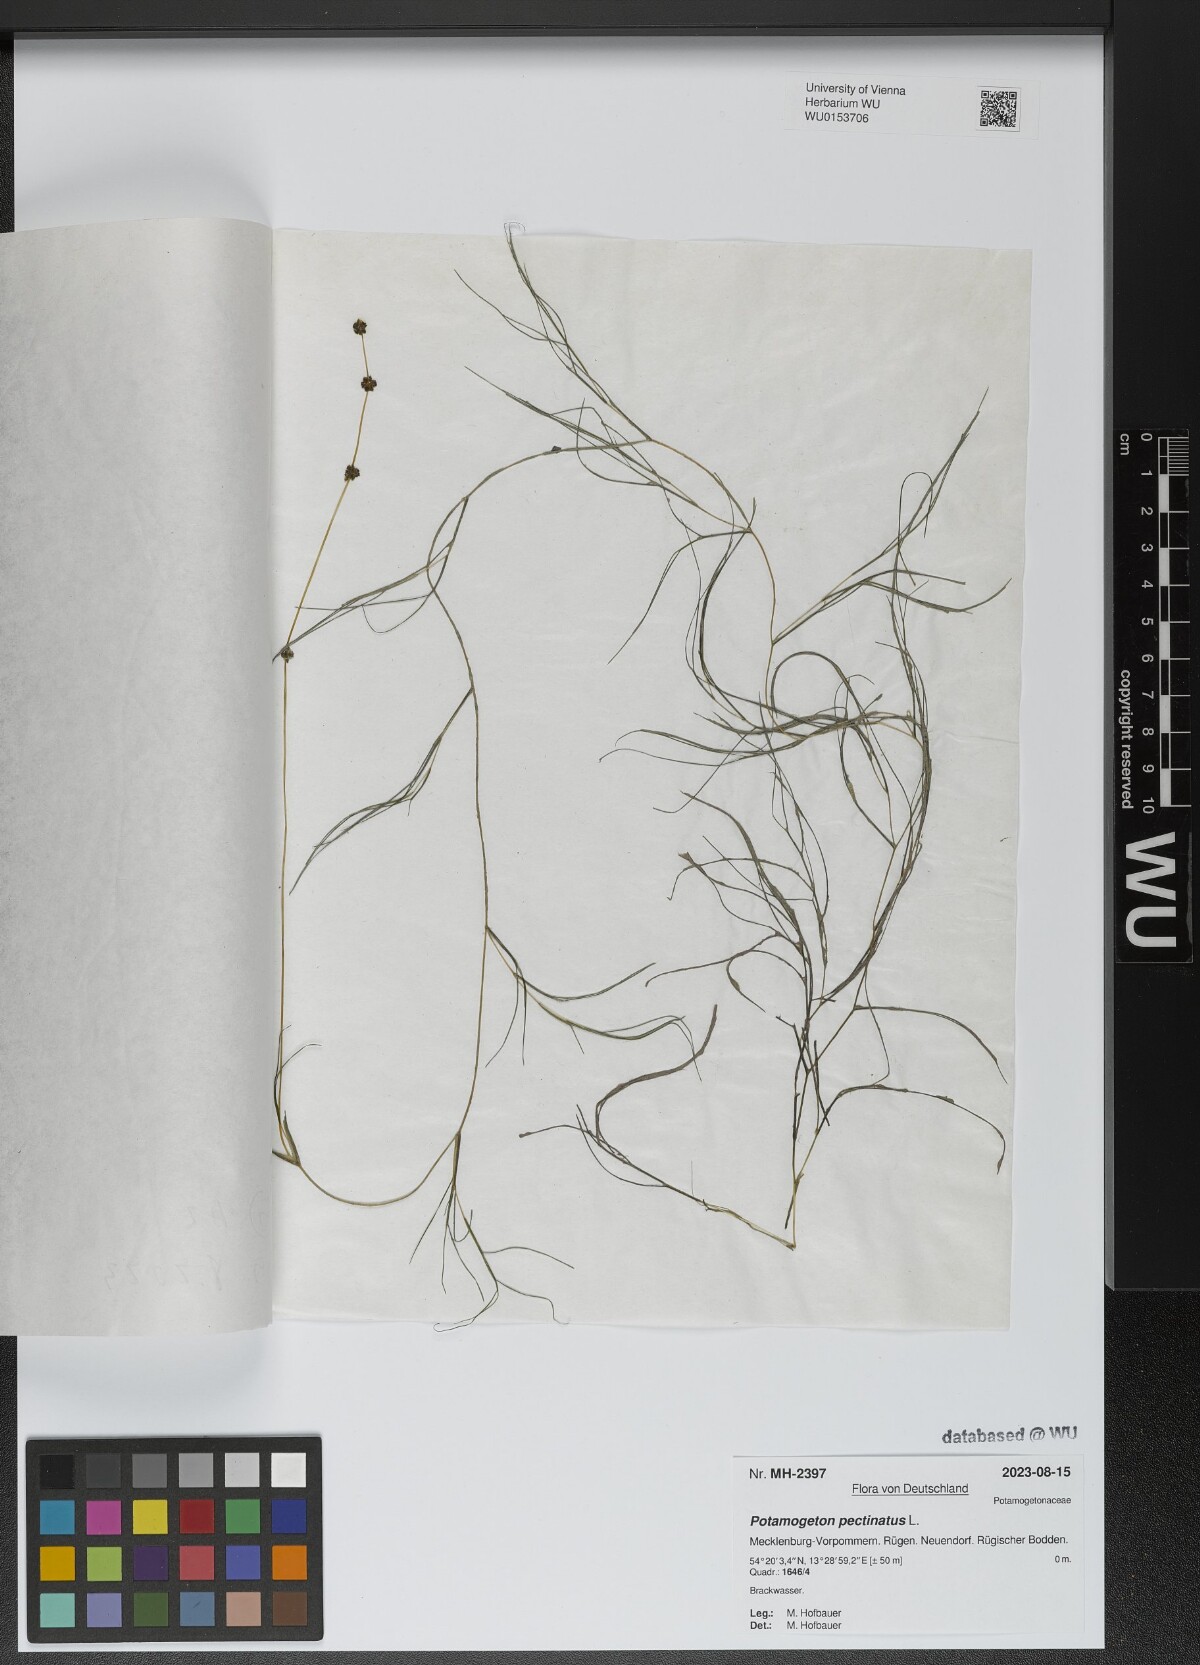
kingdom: Plantae
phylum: Tracheophyta
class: Liliopsida
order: Alismatales
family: Potamogetonaceae
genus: Stuckenia
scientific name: Stuckenia pectinata
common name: Sago pondweed
